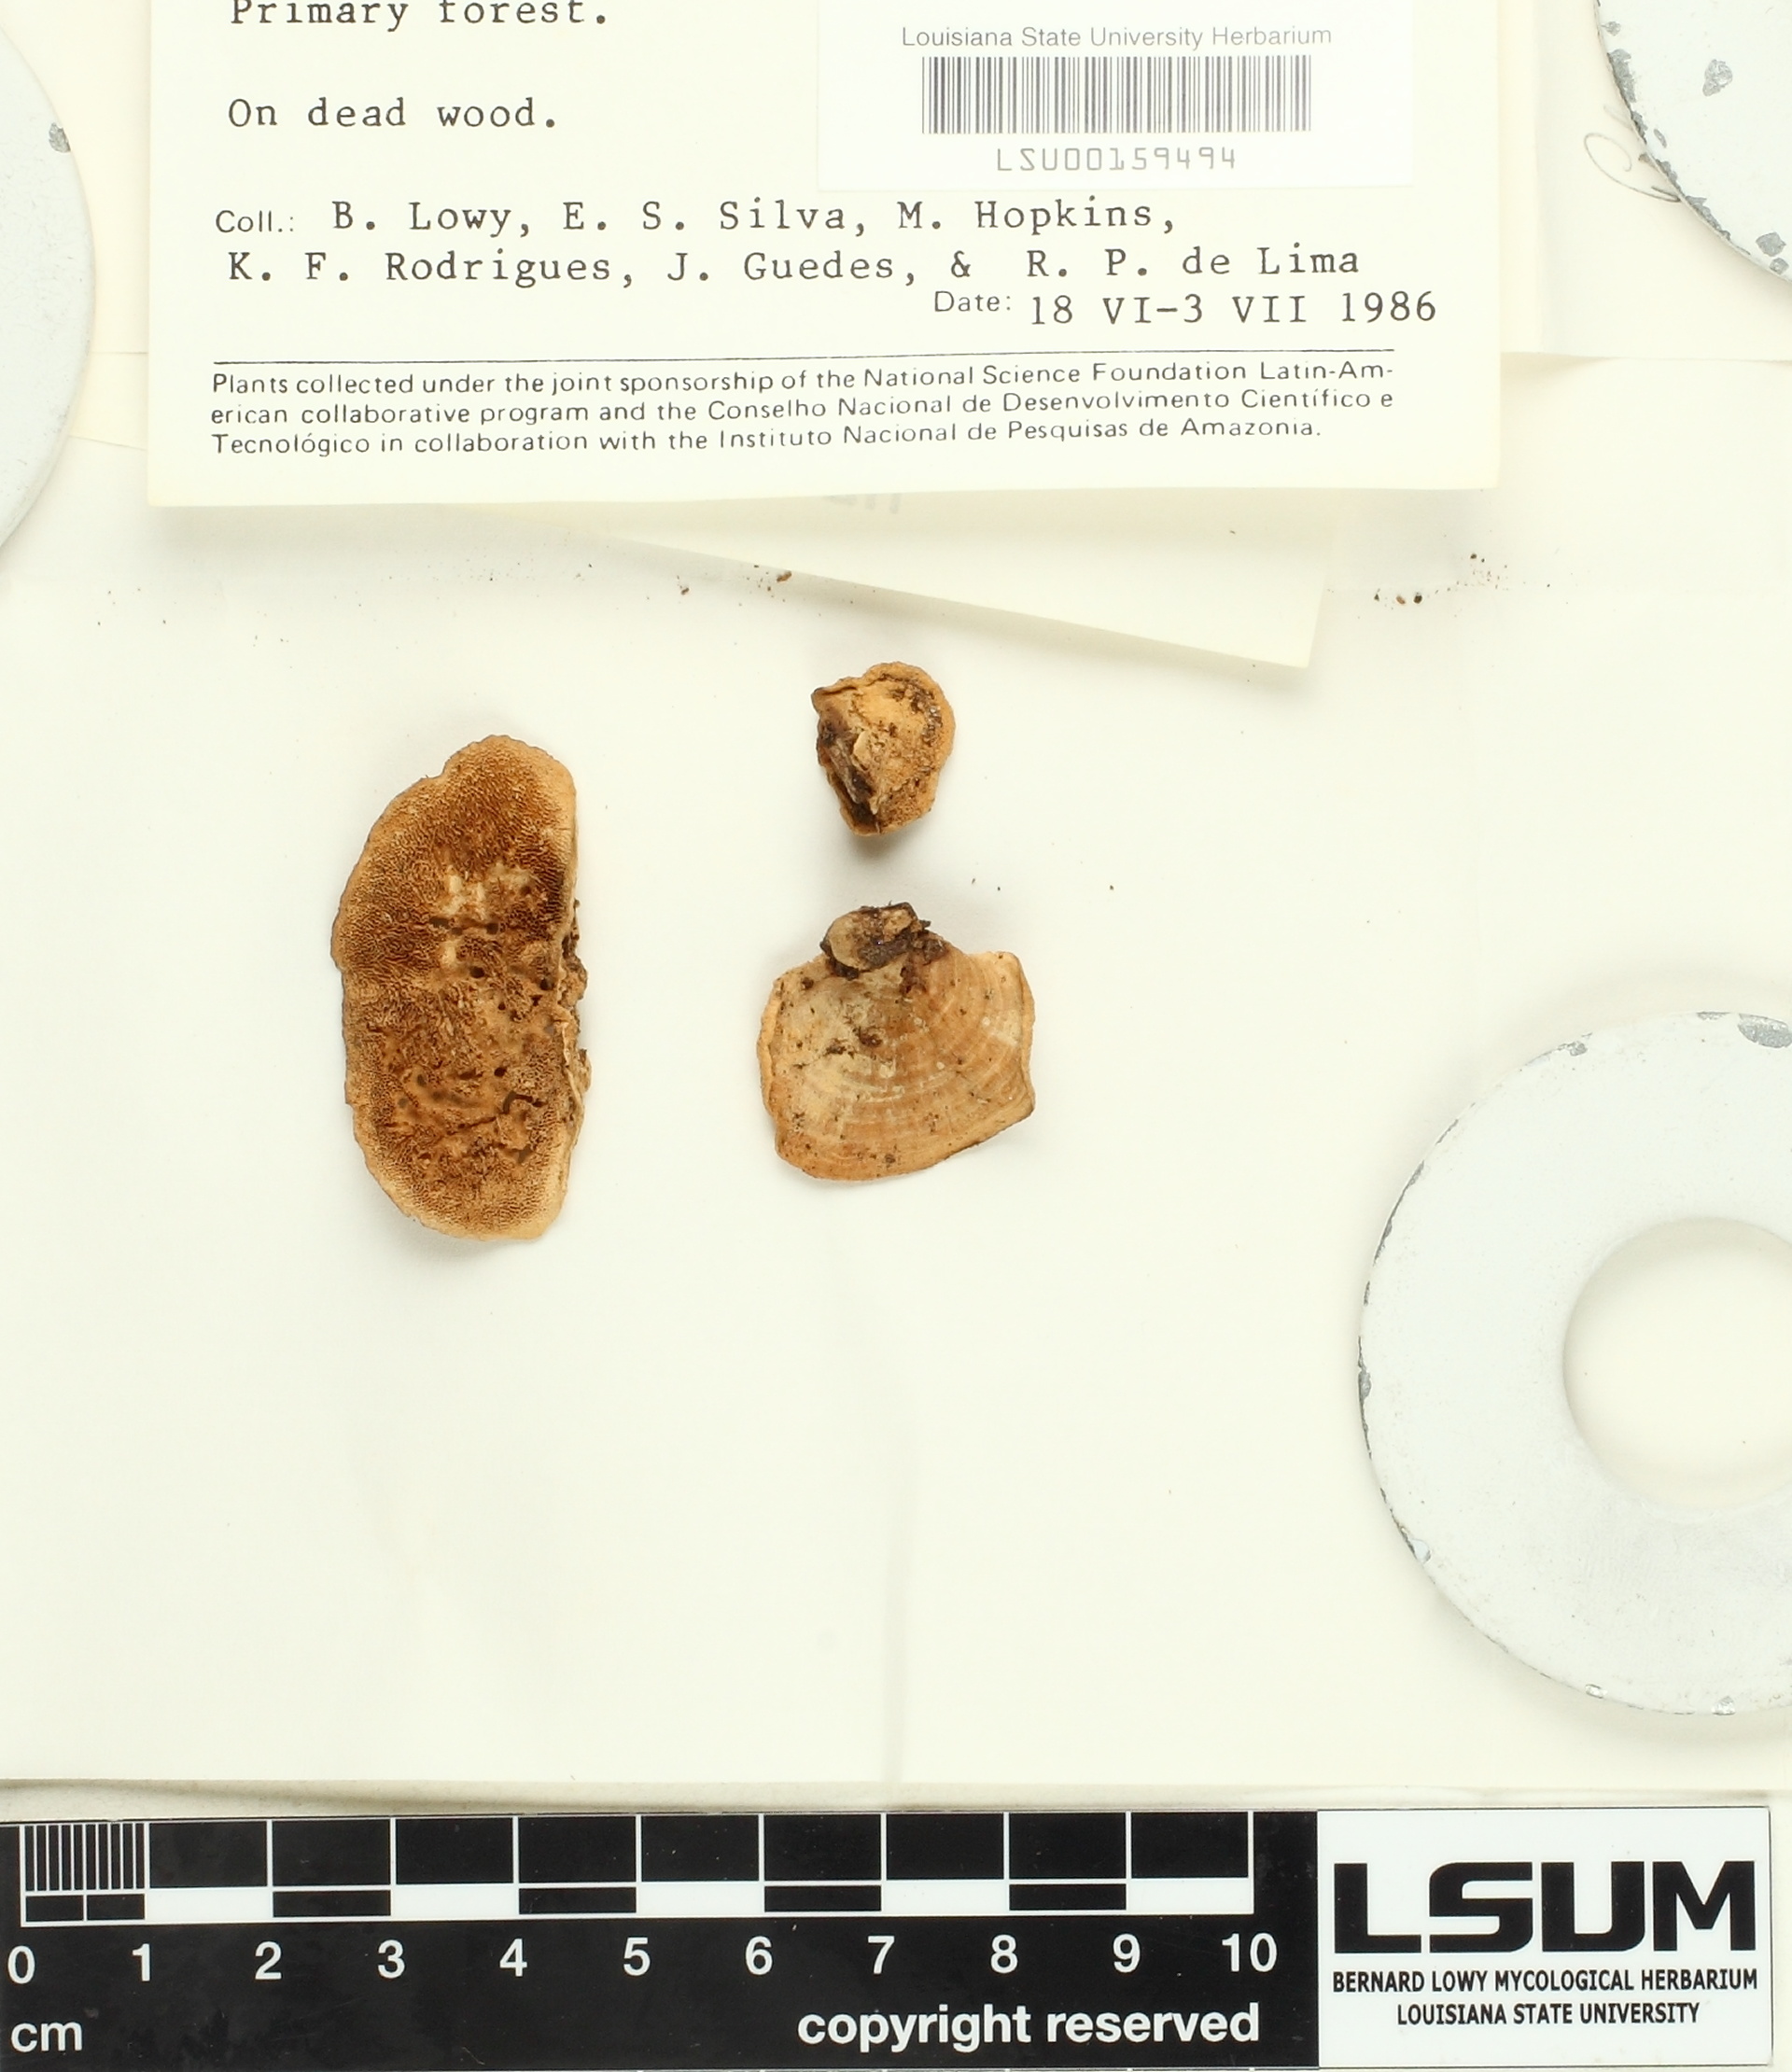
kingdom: Fungi
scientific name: Fungi
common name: Fungi
